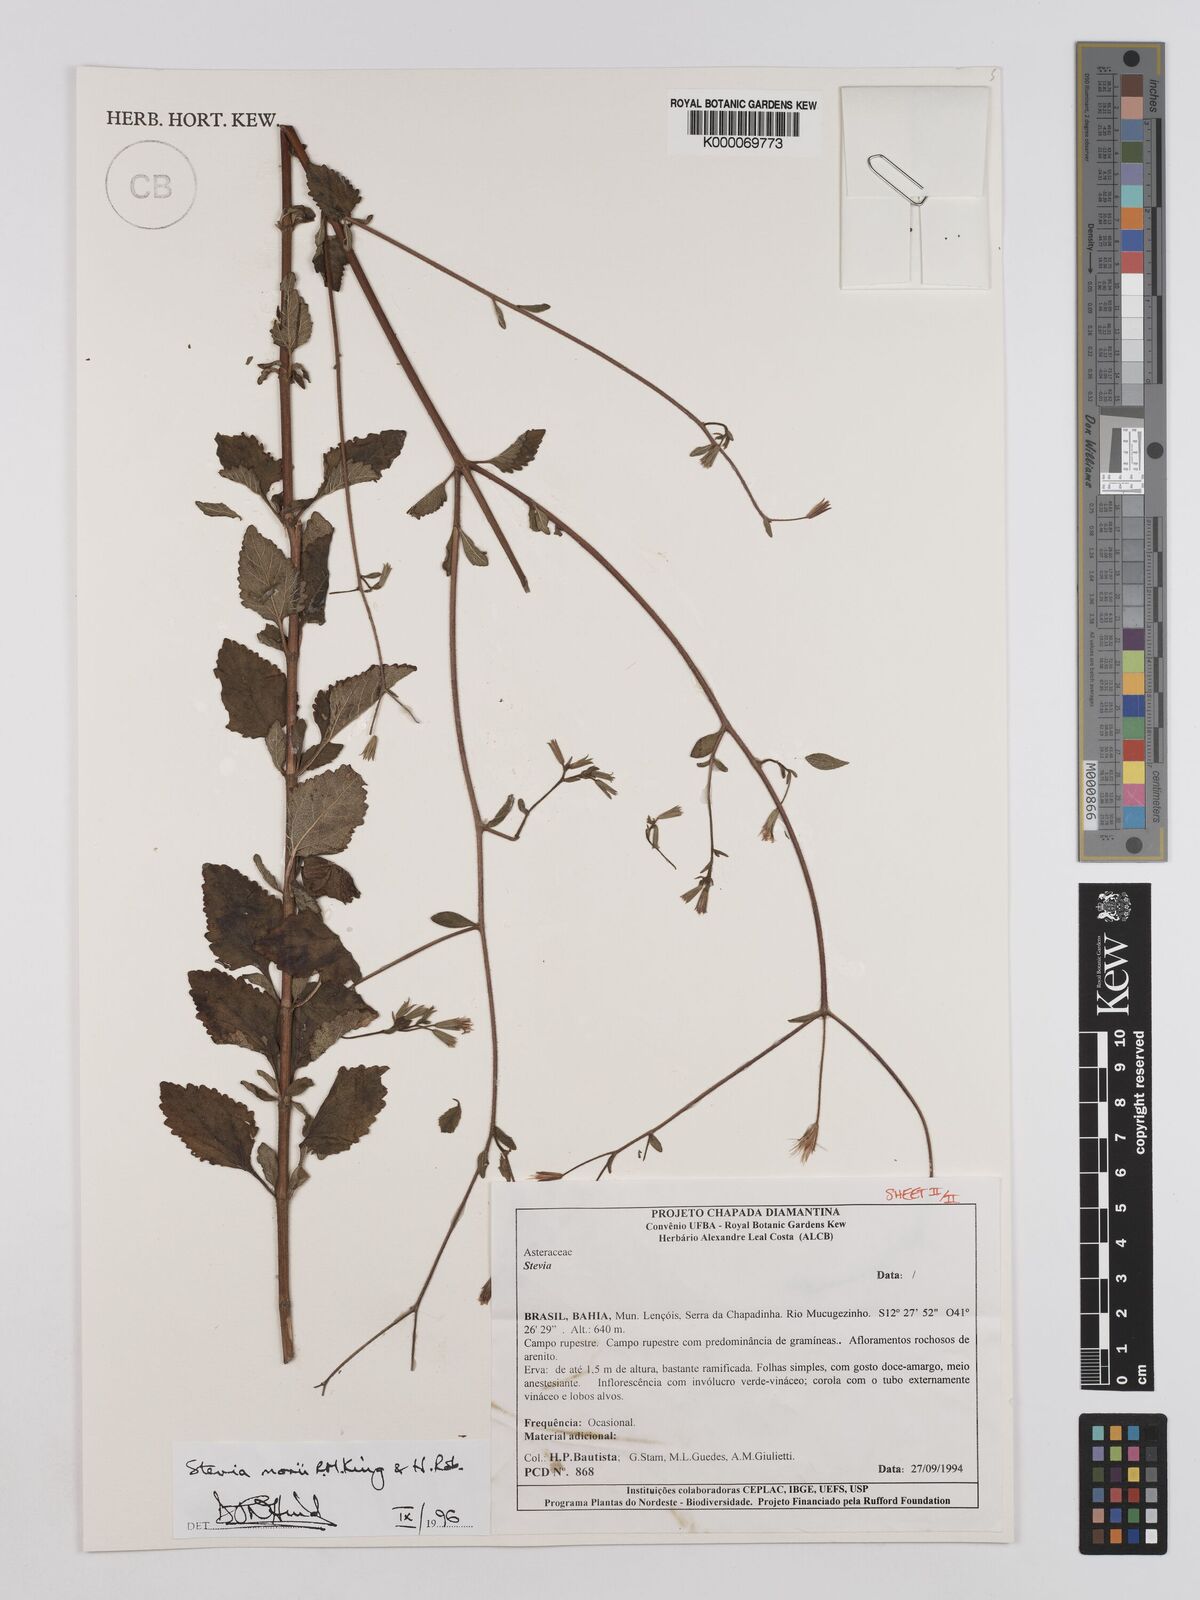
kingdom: Plantae
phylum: Tracheophyta
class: Magnoliopsida
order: Asterales
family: Asteraceae
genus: Stevia
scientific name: Stevia morii
